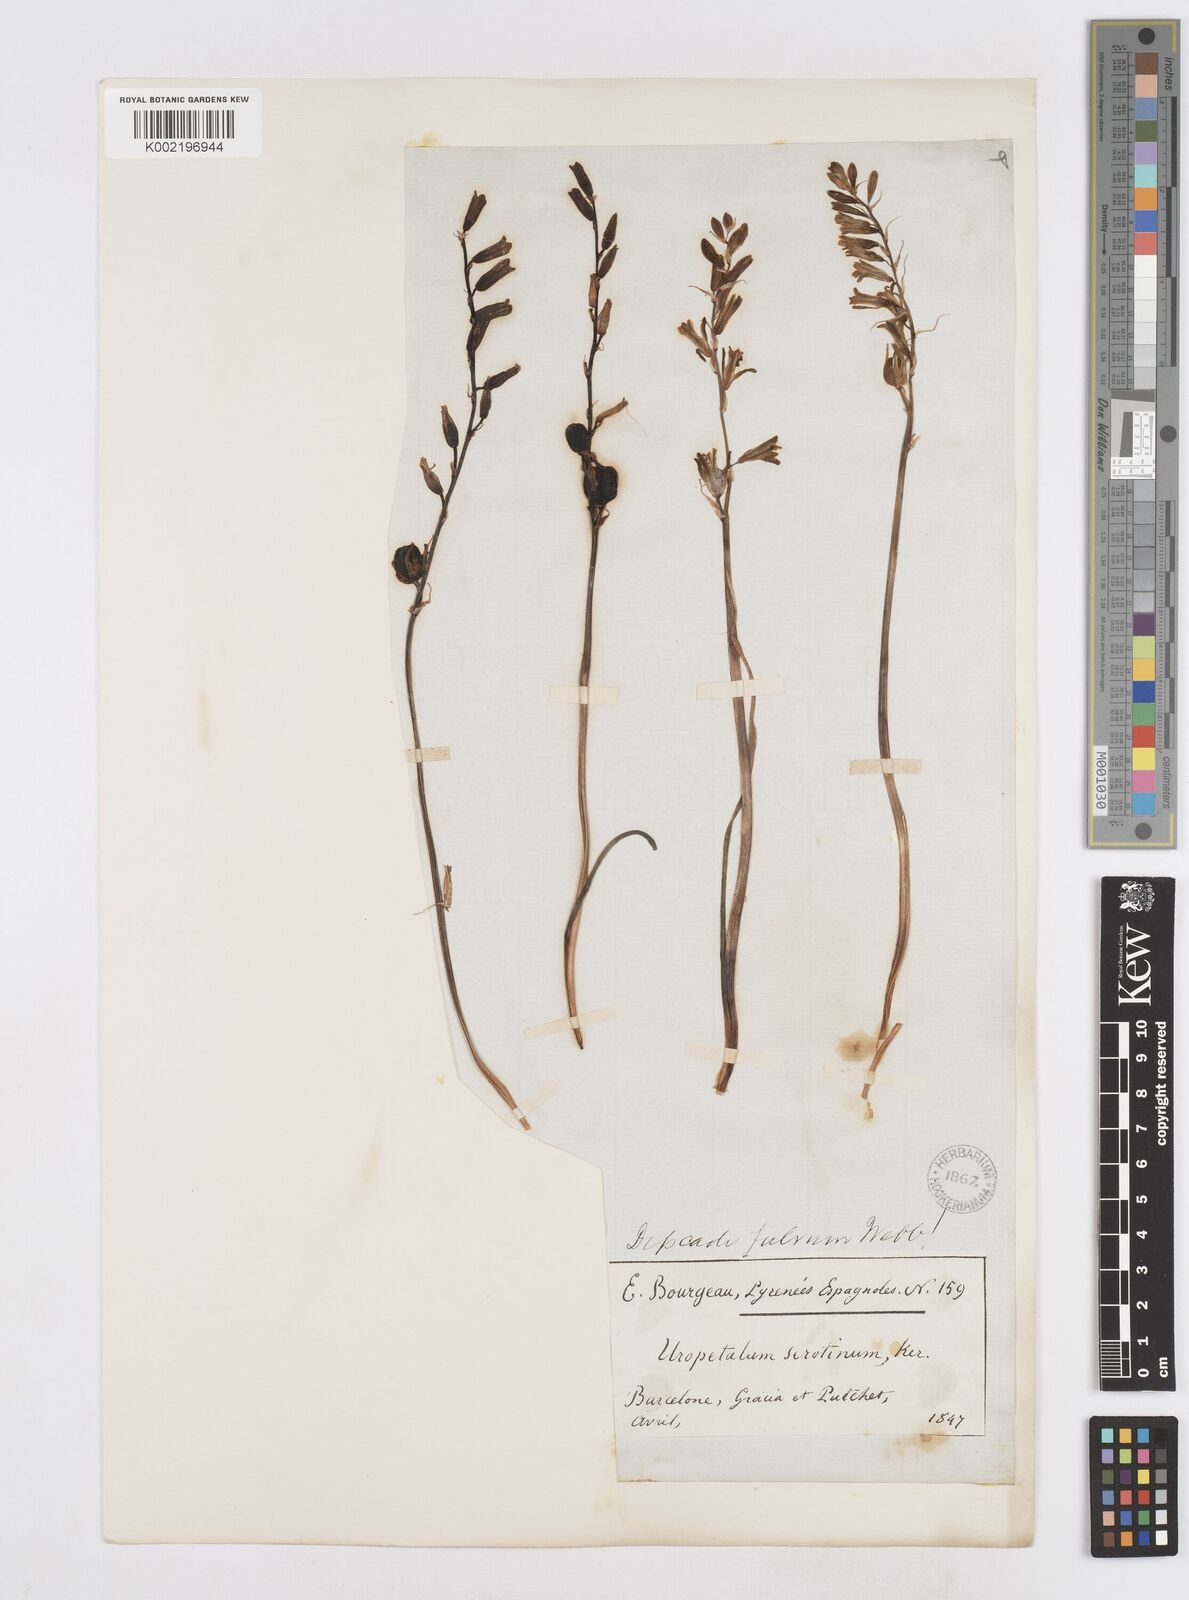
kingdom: Plantae
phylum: Tracheophyta
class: Liliopsida
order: Asparagales
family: Asparagaceae
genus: Dipcadi
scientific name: Dipcadi serotinum
